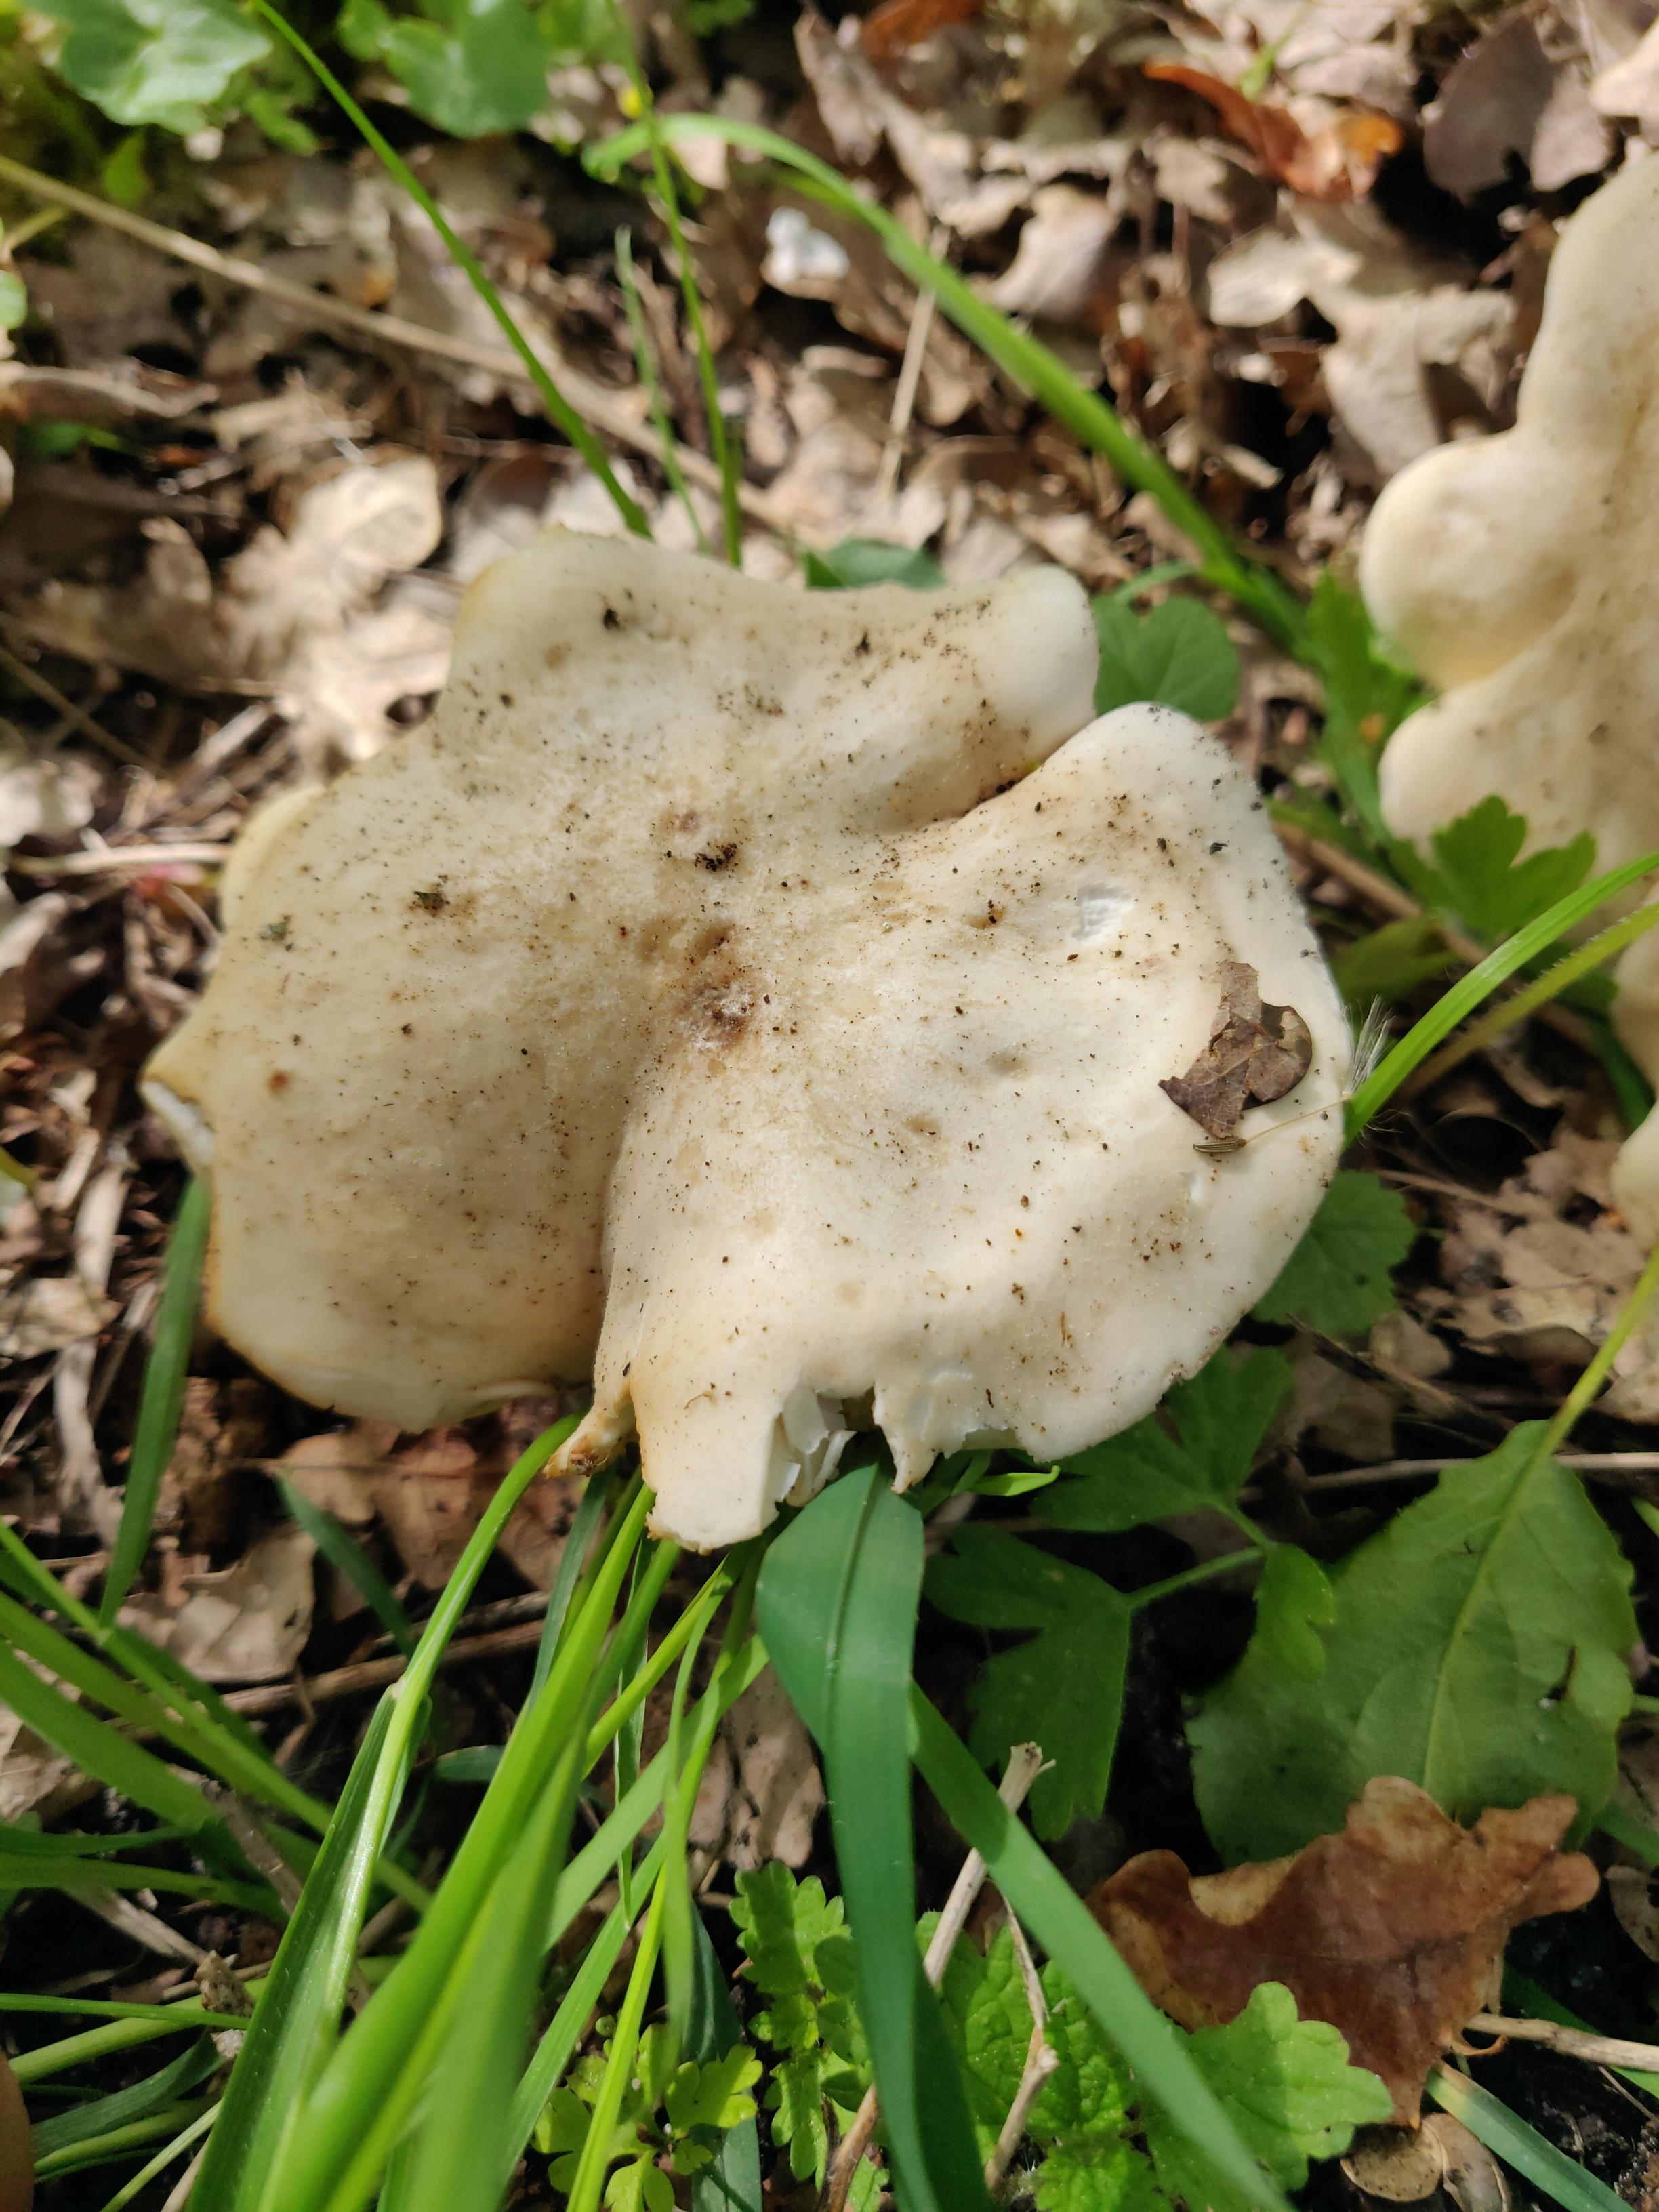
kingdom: Fungi
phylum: Basidiomycota
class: Agaricomycetes
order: Agaricales
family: Lyophyllaceae
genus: Calocybe
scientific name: Calocybe gambosa
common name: vårmusseron
